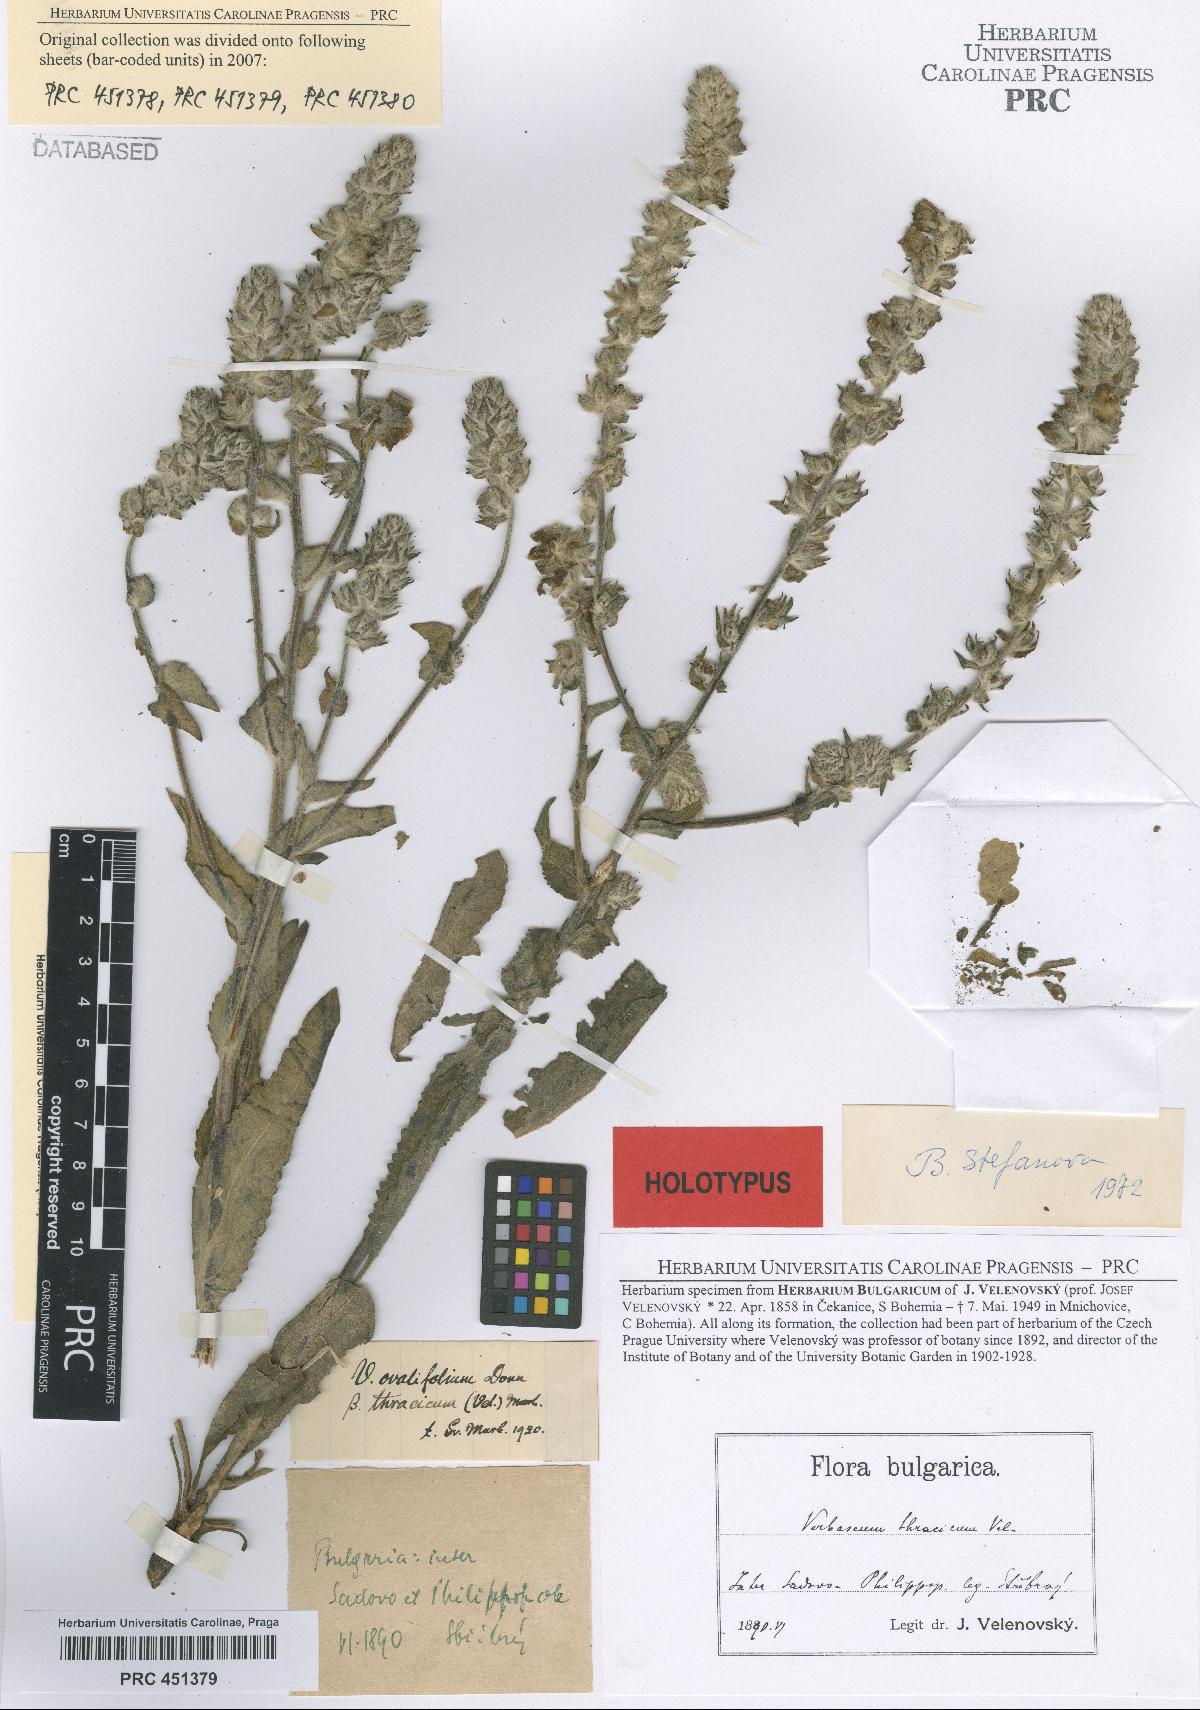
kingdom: Plantae
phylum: Tracheophyta
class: Magnoliopsida
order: Lamiales
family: Scrophulariaceae
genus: Verbascum
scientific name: Verbascum ovalifolium
